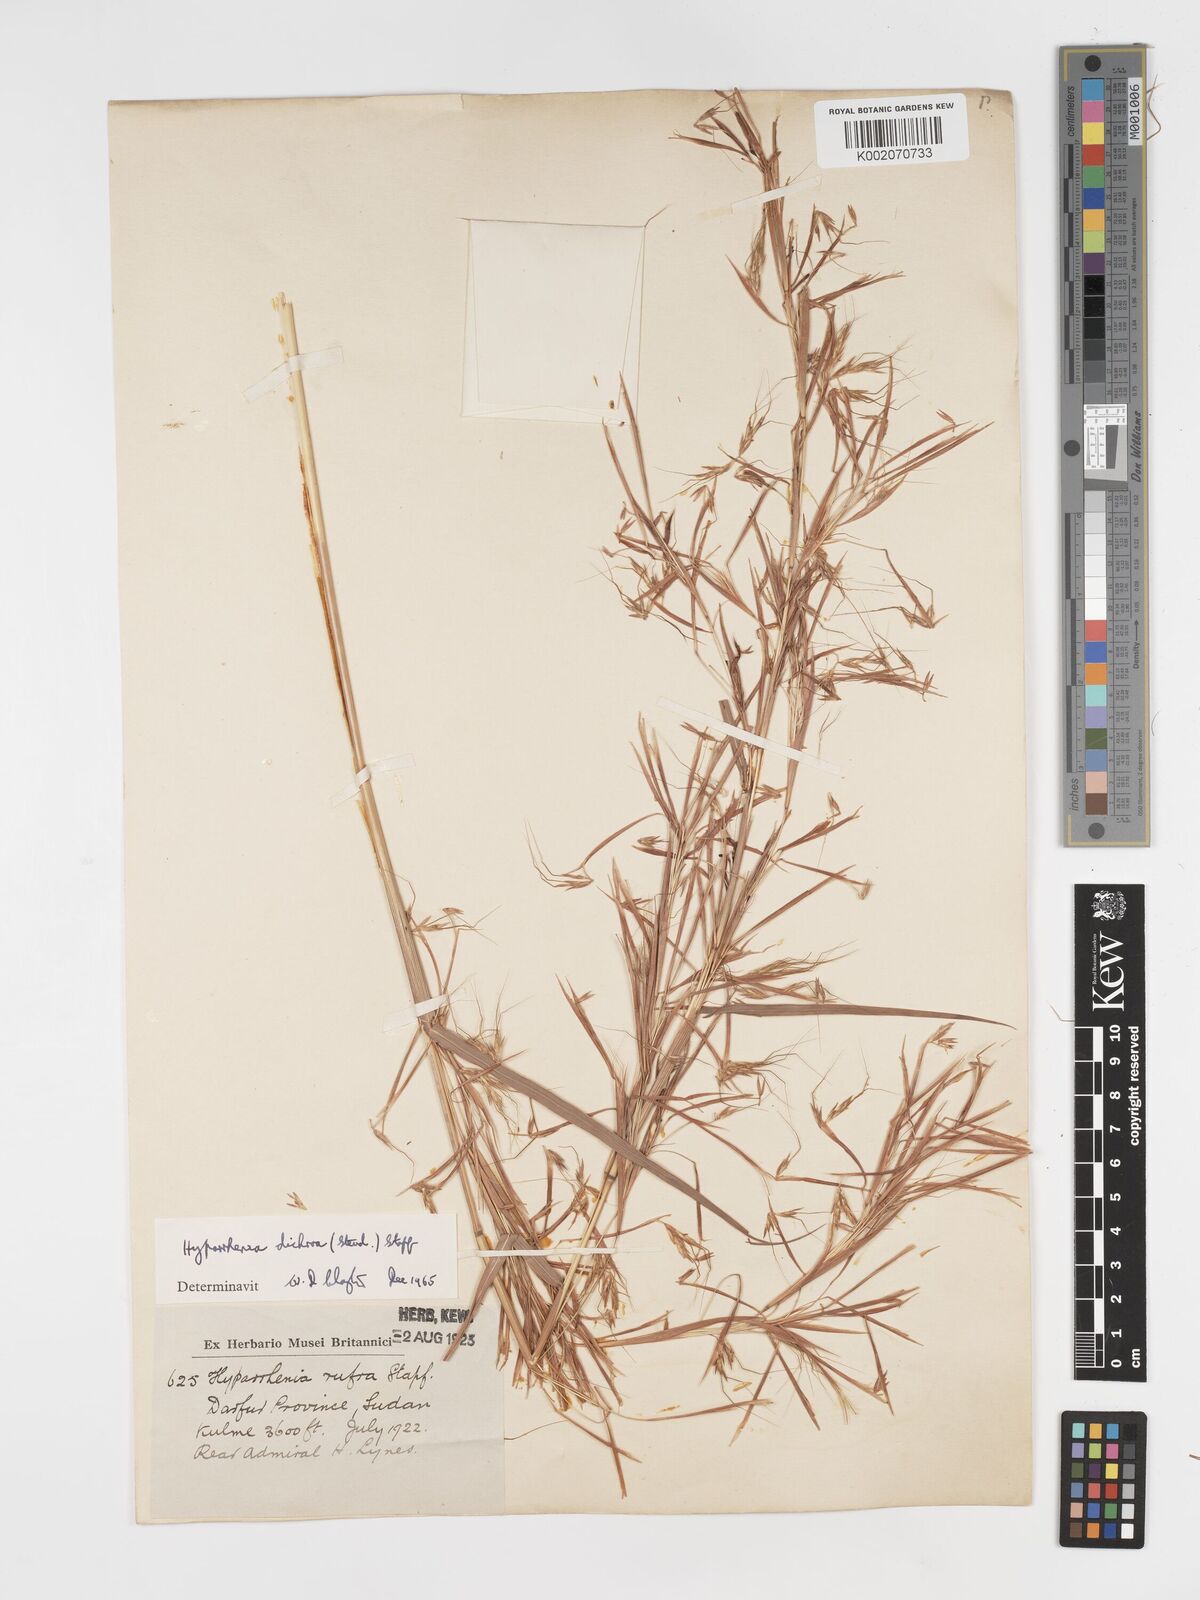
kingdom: Plantae
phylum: Tracheophyta
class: Liliopsida
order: Poales
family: Poaceae
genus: Hyparrhenia
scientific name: Hyparrhenia dichroa
